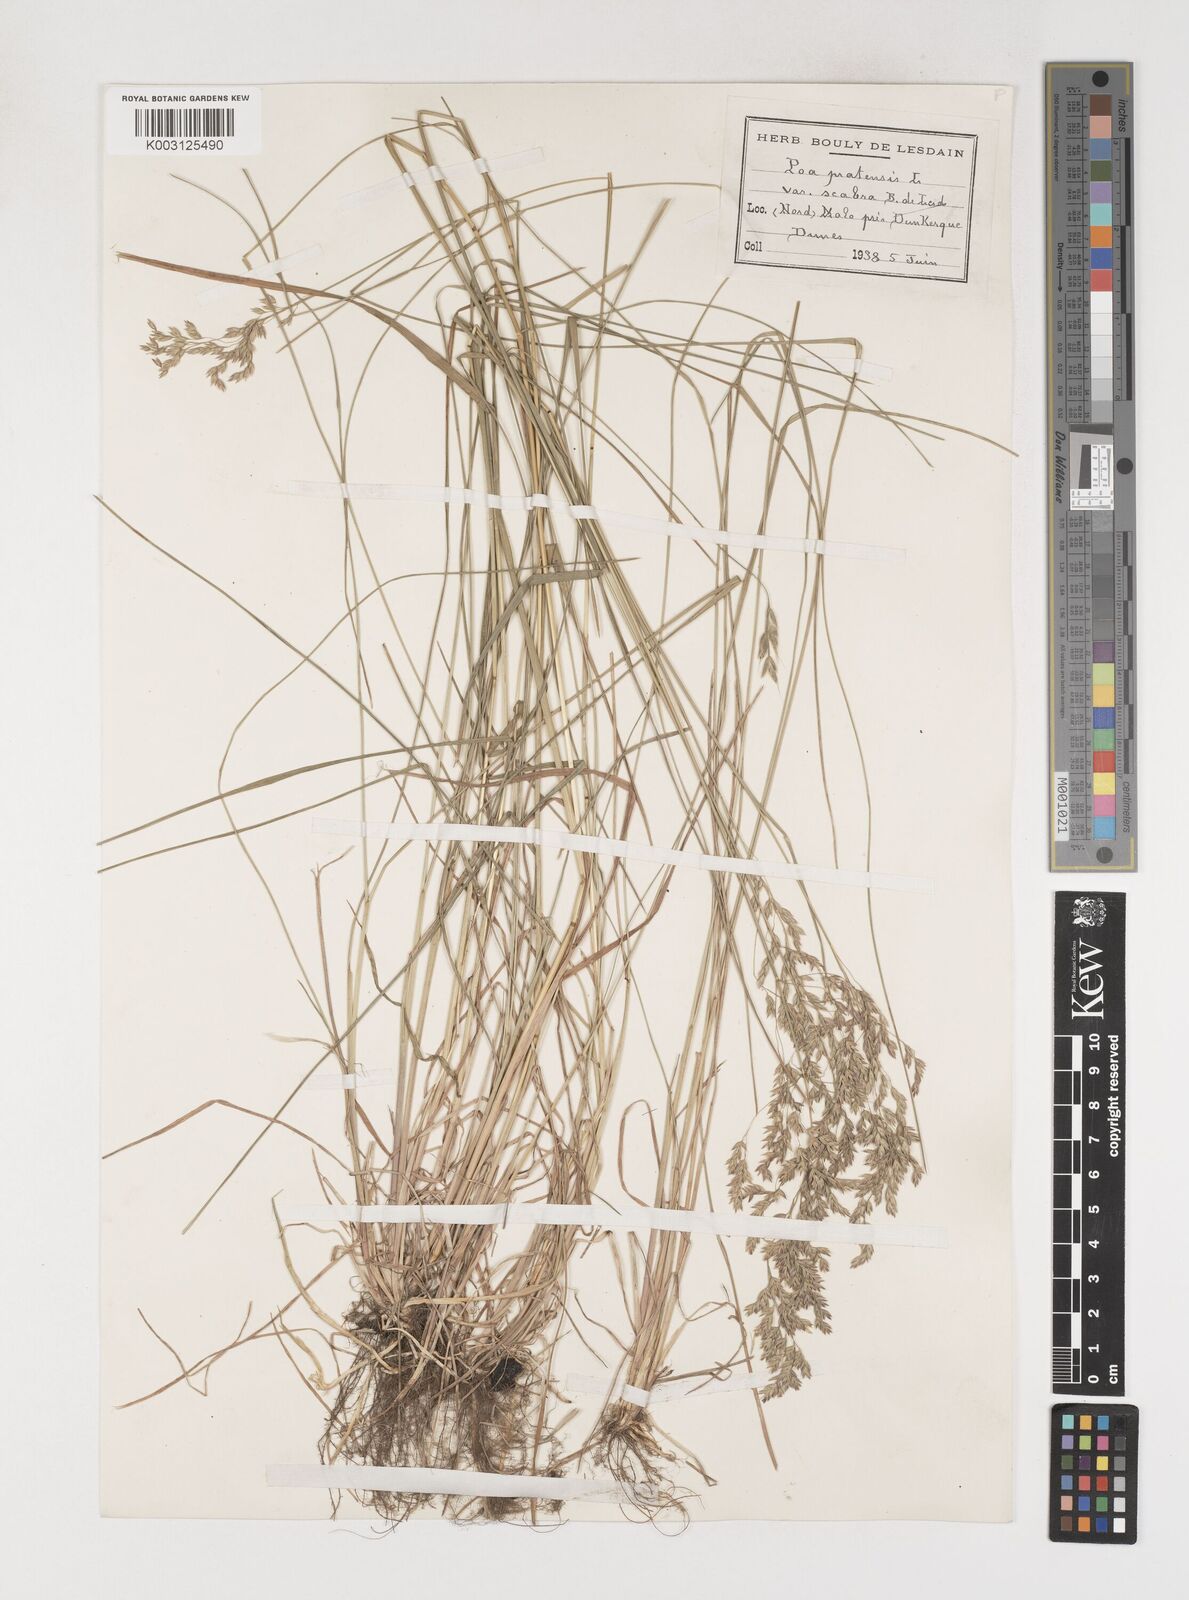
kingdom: Plantae
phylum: Tracheophyta
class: Liliopsida
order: Poales
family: Poaceae
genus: Poa
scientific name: Poa angustifolia
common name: Narrow-leaved meadow-grass
